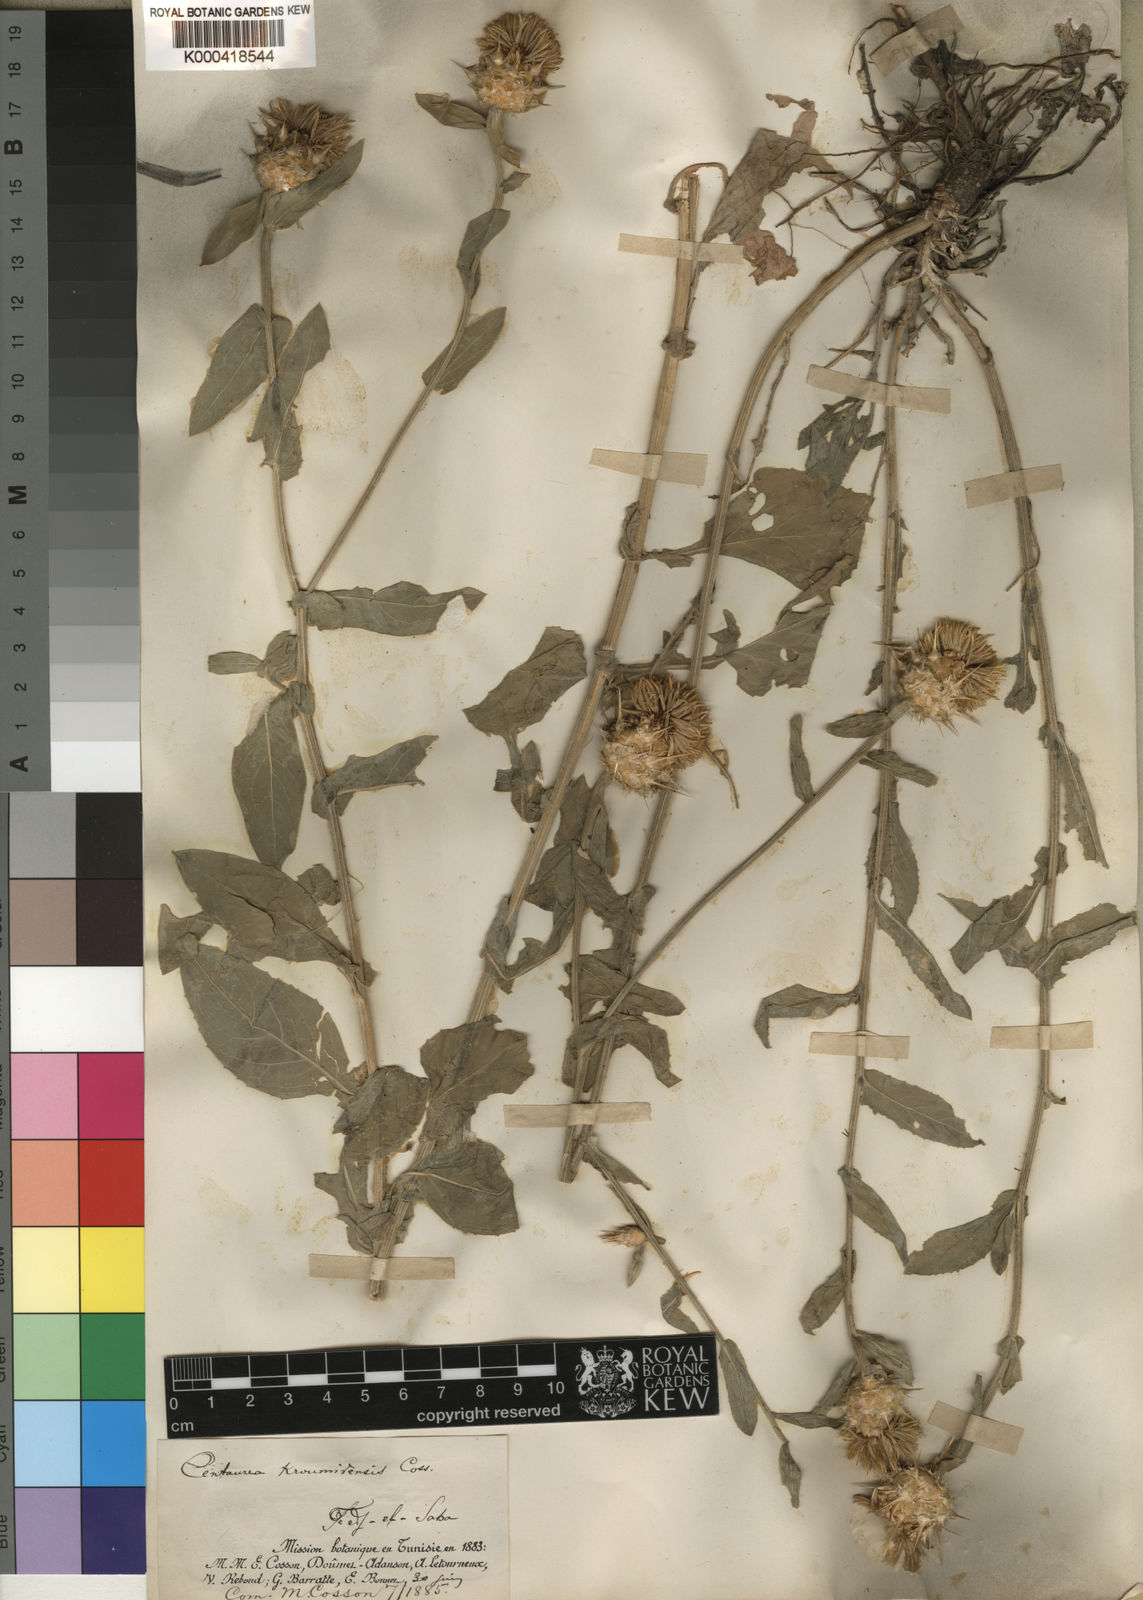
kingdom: Plantae
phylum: Tracheophyta
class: Magnoliopsida
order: Asterales
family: Asteraceae
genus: Centaurea
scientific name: Centaurea sicula
